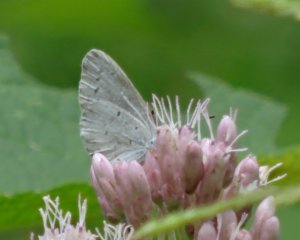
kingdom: Animalia
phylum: Arthropoda
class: Insecta
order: Lepidoptera
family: Lycaenidae
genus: Cyaniris
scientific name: Cyaniris neglecta
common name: Summer Azure
